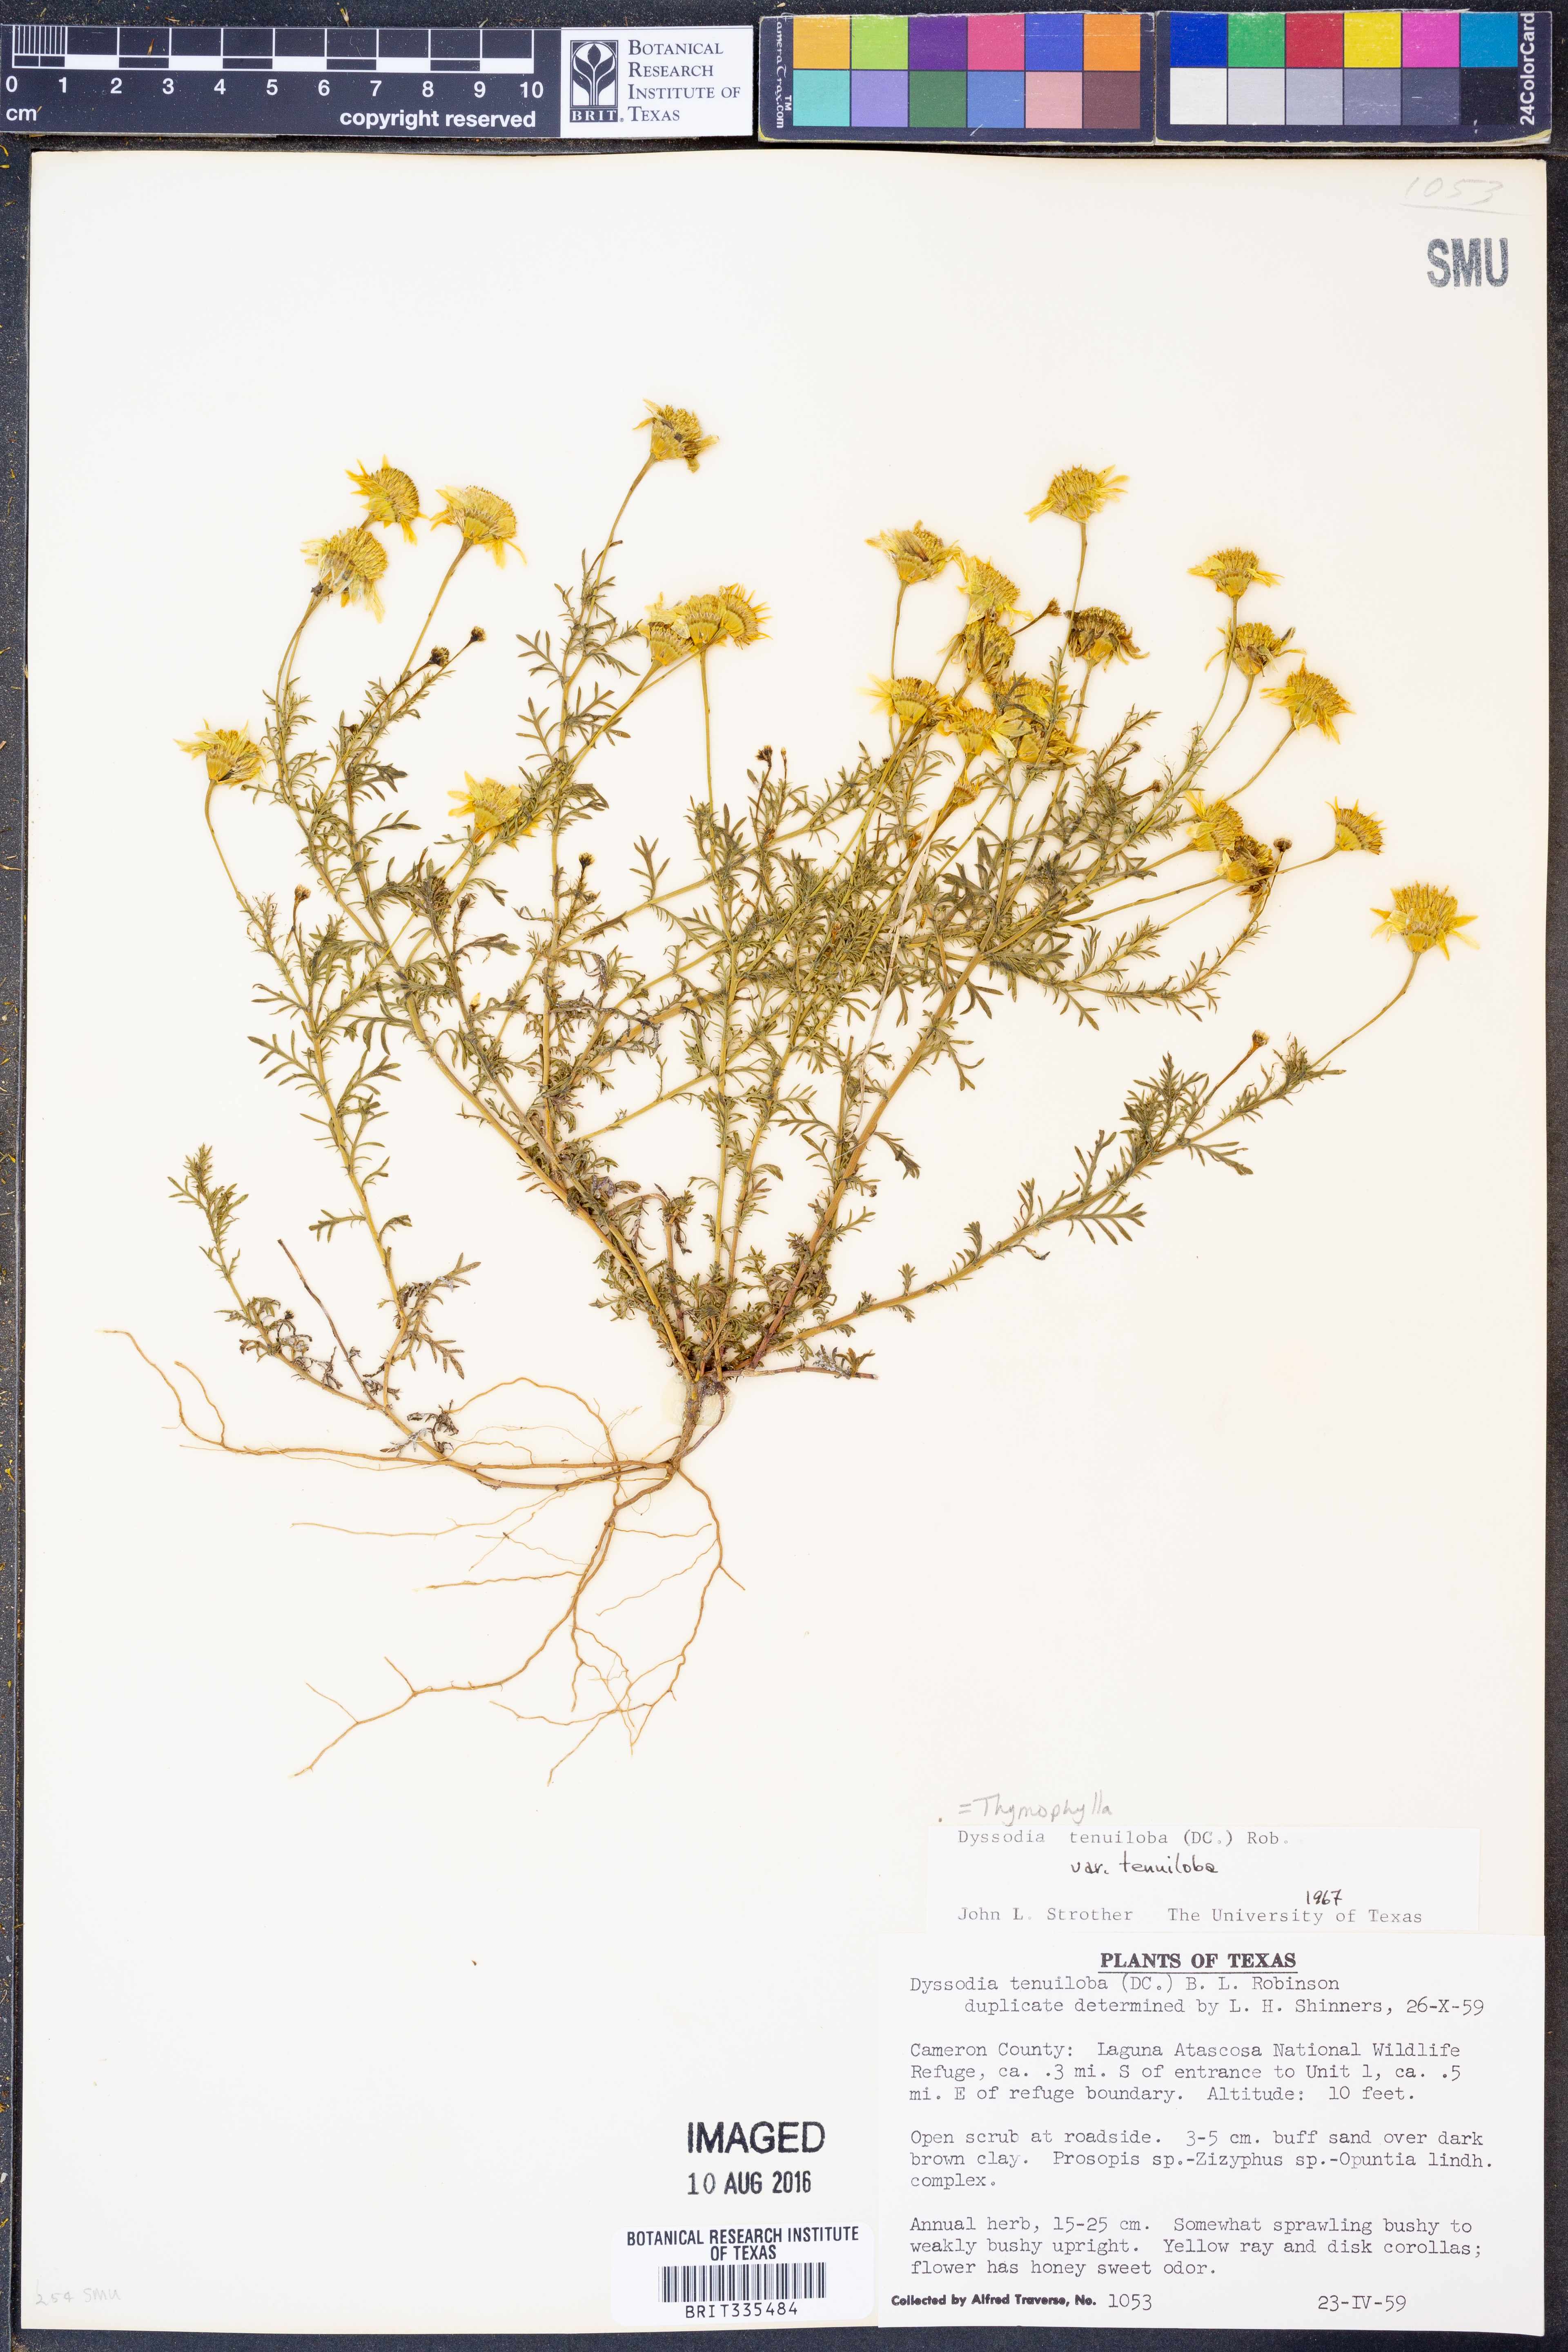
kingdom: Plantae
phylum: Tracheophyta
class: Magnoliopsida
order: Asterales
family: Asteraceae
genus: Thymophylla
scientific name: Thymophylla tenuiloba
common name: Dahlberg's daisy
